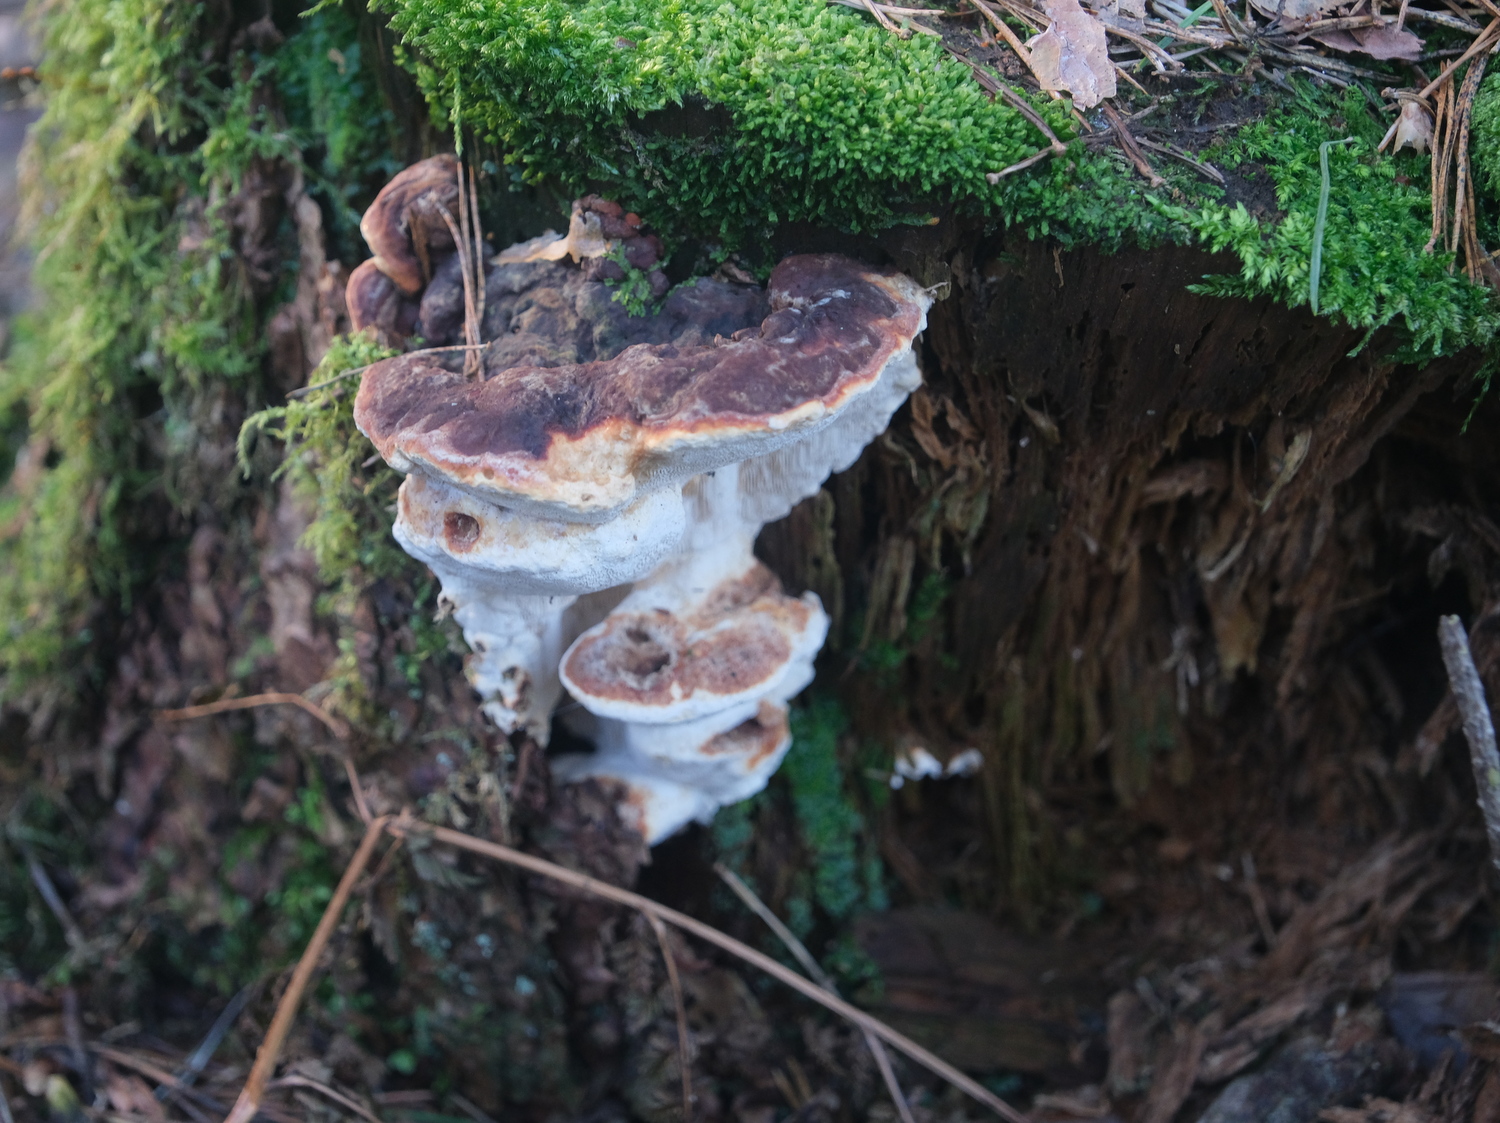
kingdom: Fungi
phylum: Basidiomycota
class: Agaricomycetes
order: Russulales
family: Bondarzewiaceae
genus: Heterobasidion
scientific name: Heterobasidion annosum
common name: almindelig rodfordærver
